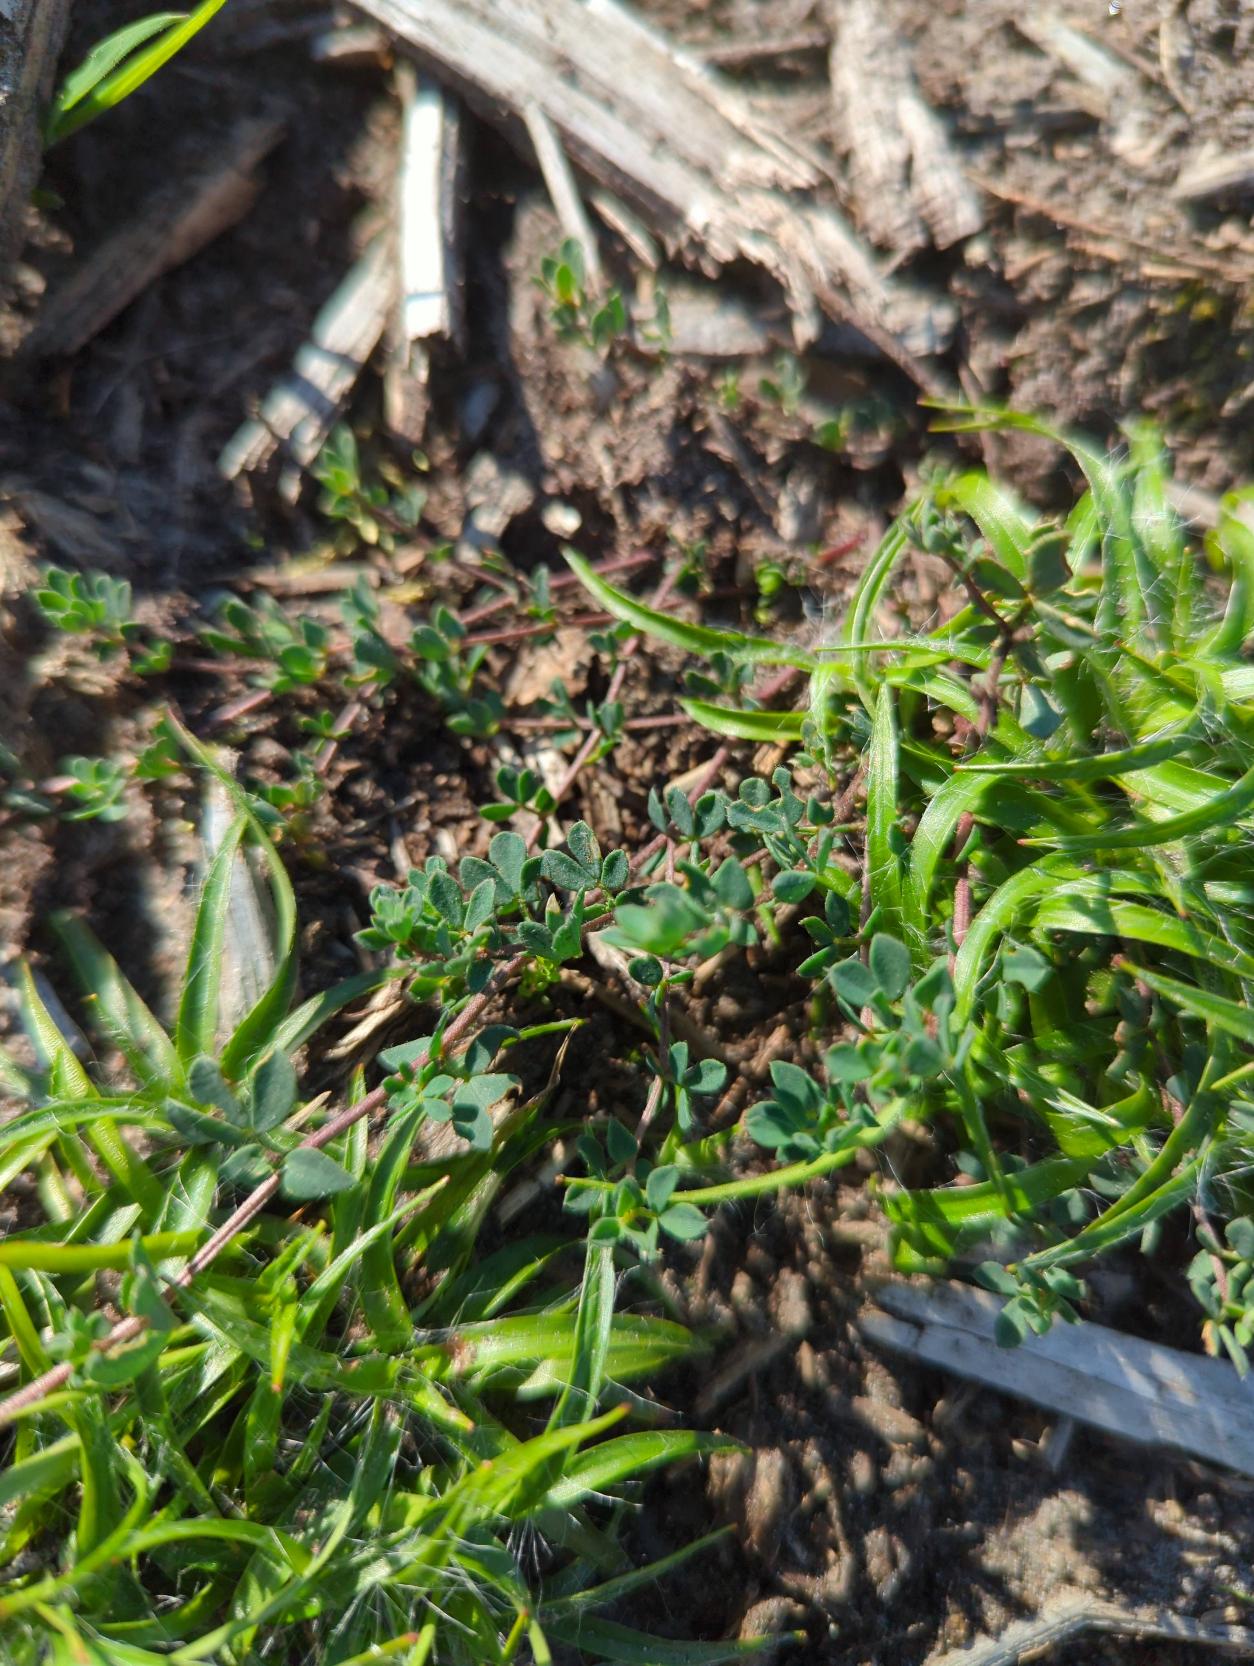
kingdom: Plantae
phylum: Tracheophyta
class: Magnoliopsida
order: Fabales
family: Fabaceae
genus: Lotus
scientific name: Lotus corniculatus
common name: Almindelig kællingetand
